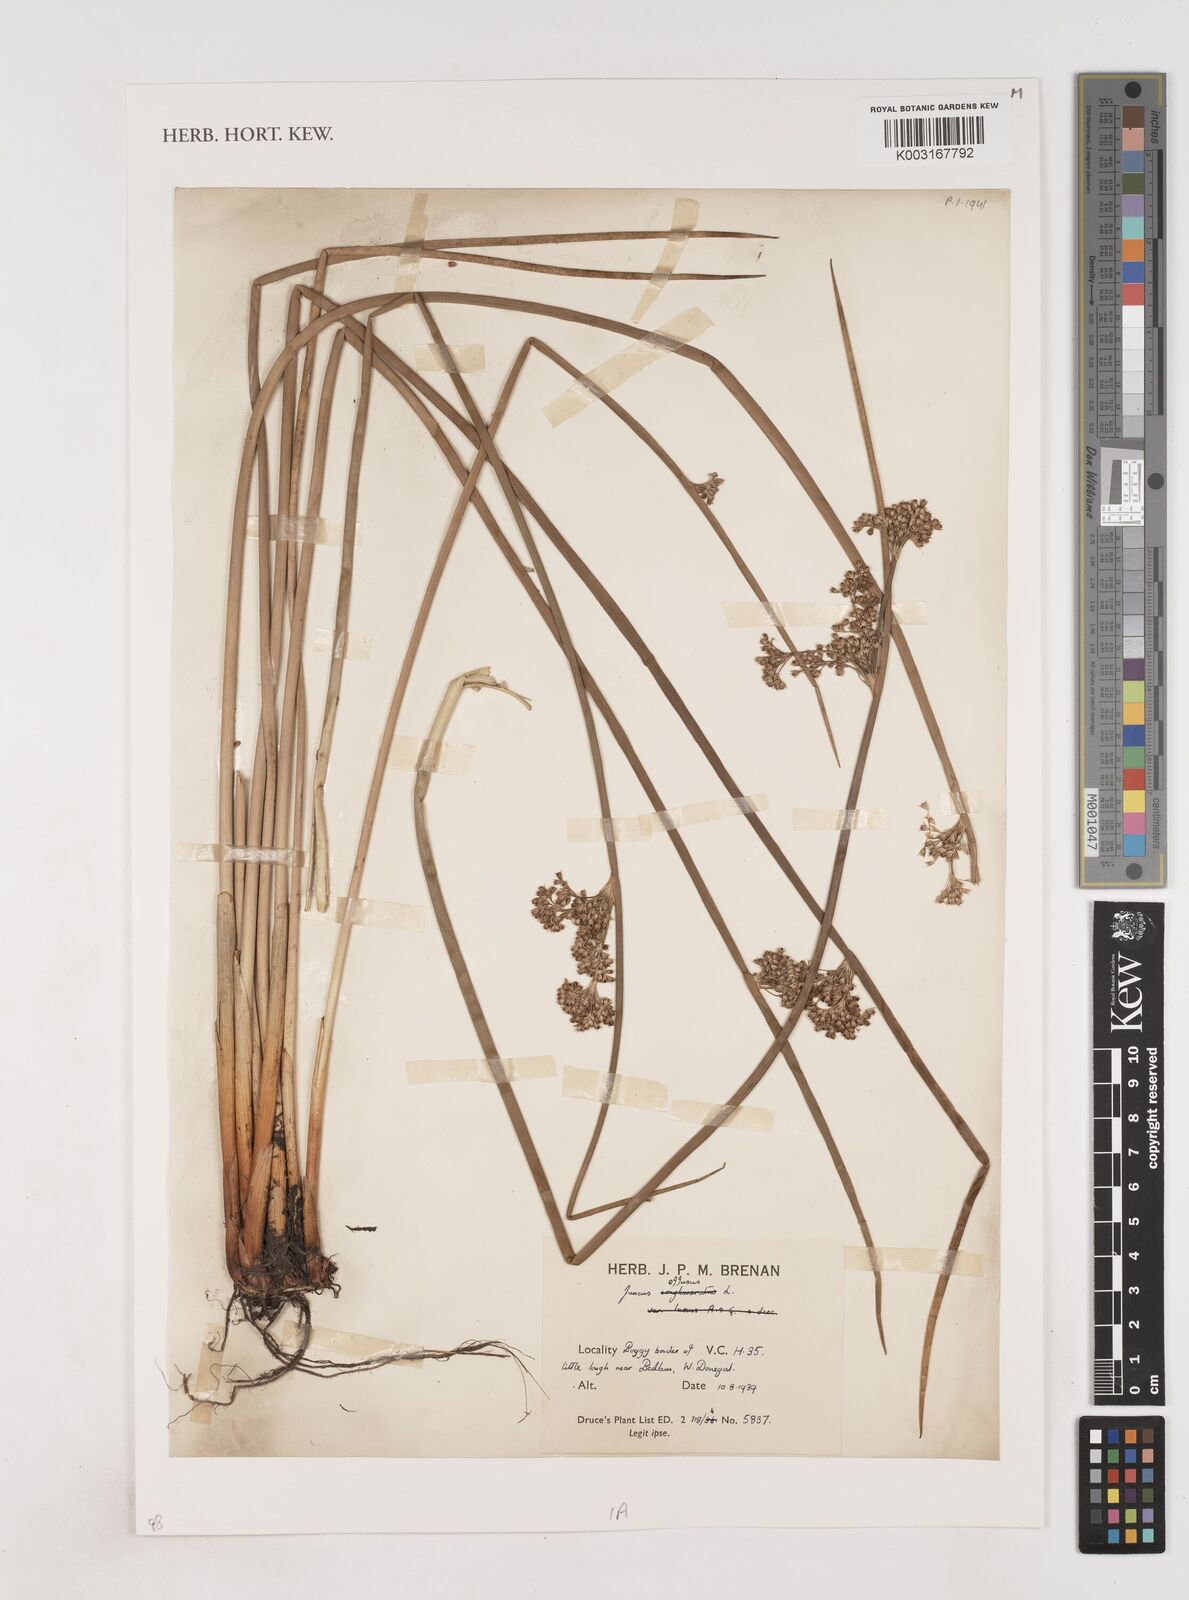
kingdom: Plantae
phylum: Tracheophyta
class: Liliopsida
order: Poales
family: Juncaceae
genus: Juncus
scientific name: Juncus effusus
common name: Soft rush
